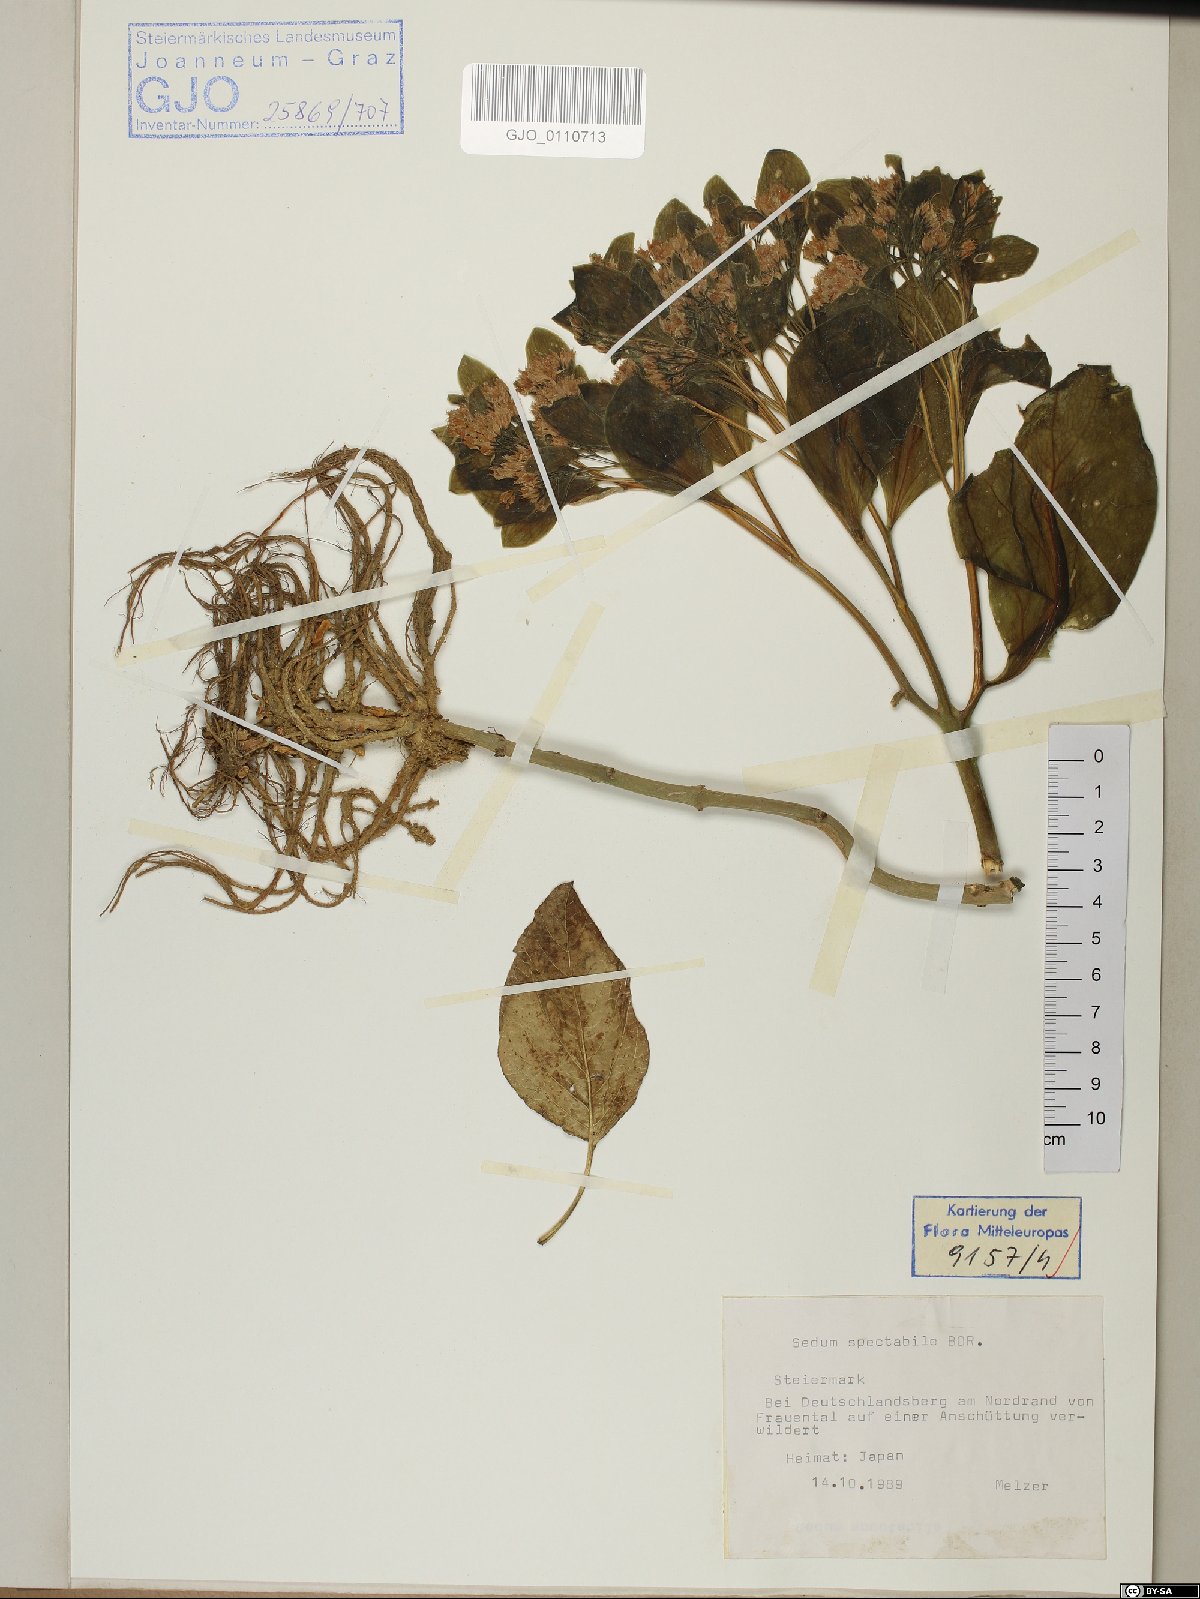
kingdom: Plantae
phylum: Tracheophyta
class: Magnoliopsida
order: Saxifragales
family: Crassulaceae
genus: Hylotelephium
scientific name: Hylotelephium spectabile
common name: Showy stonecrop
